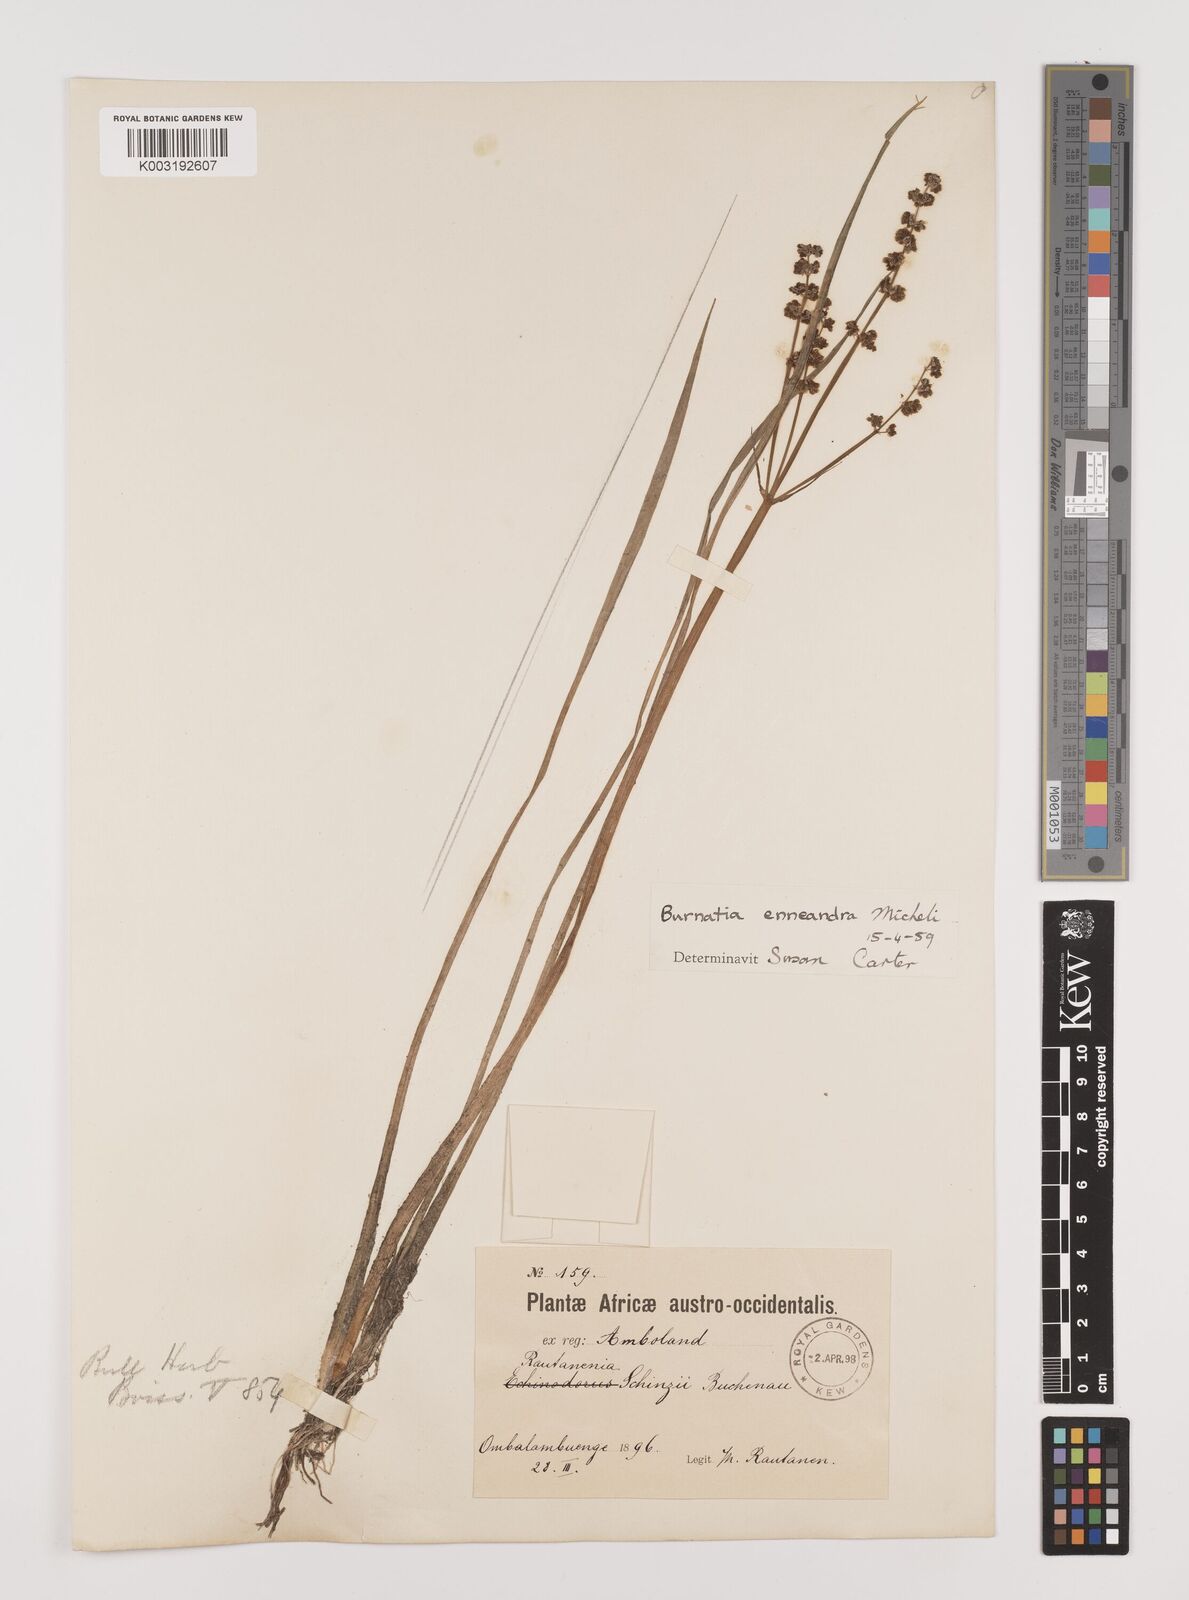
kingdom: Plantae
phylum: Tracheophyta
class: Liliopsida
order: Alismatales
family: Alismataceae
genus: Burnatia
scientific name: Burnatia enneandra
